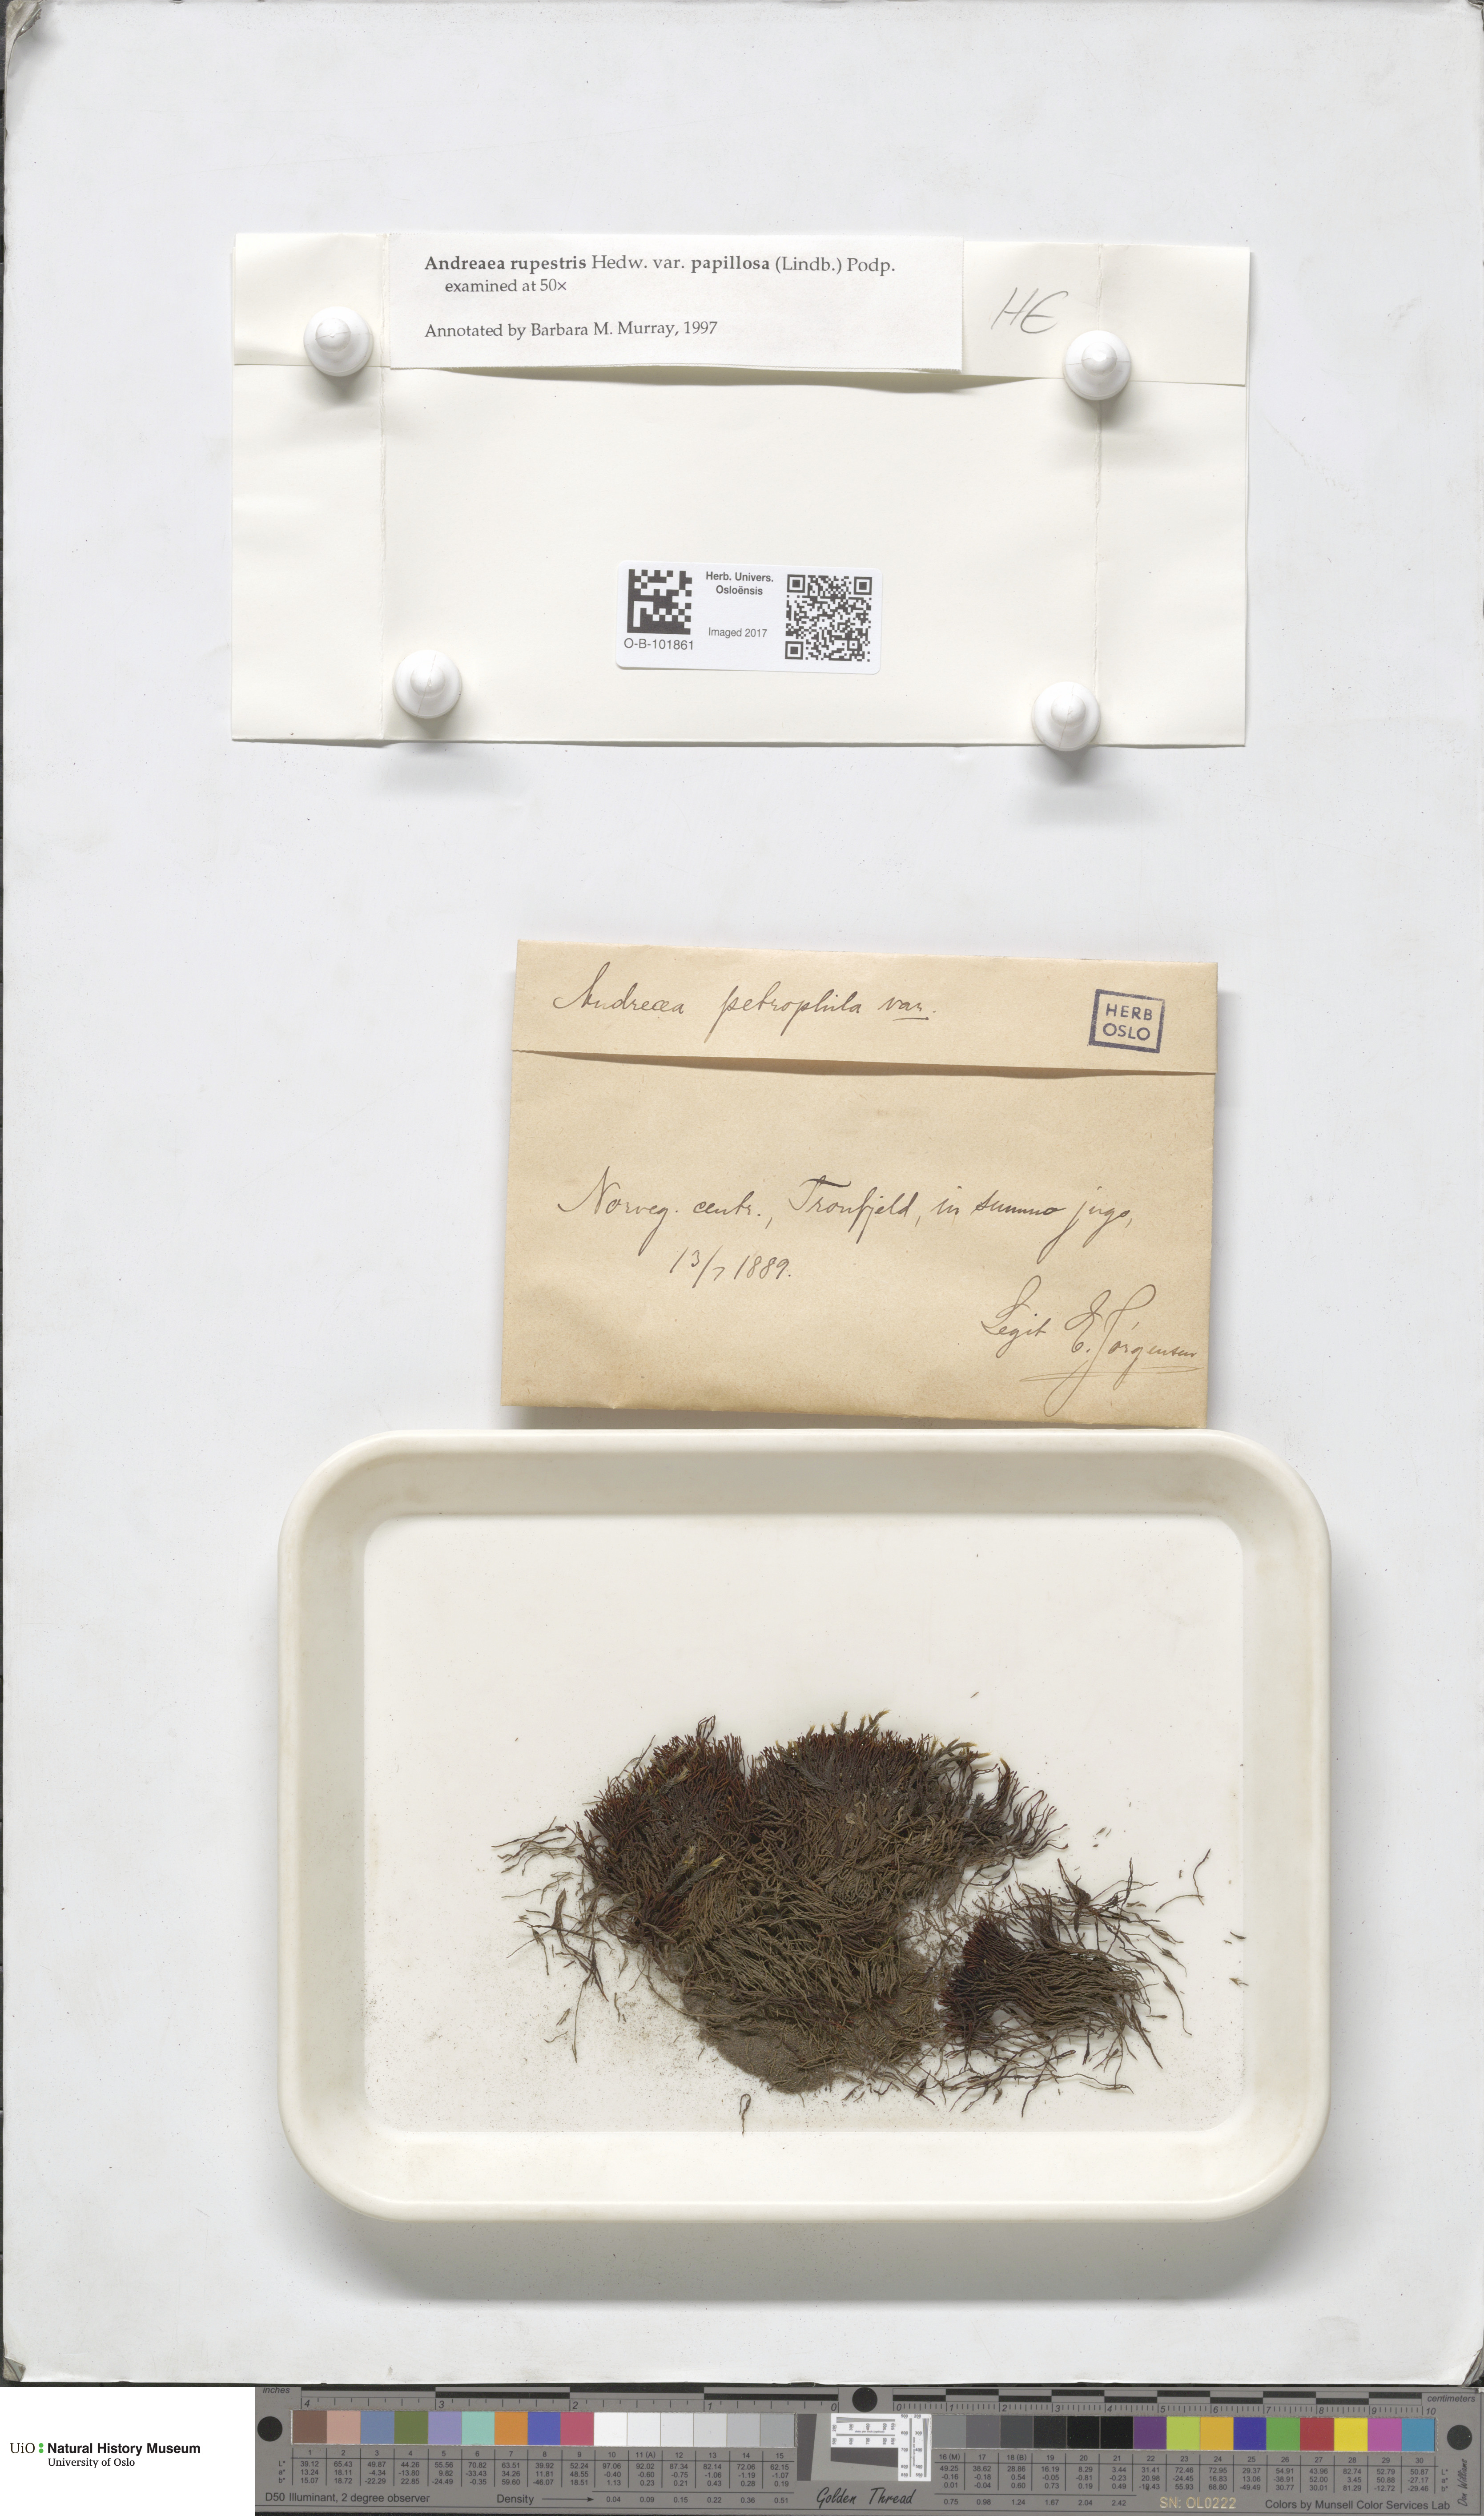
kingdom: Plantae
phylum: Bryophyta
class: Andreaeopsida
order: Andreaeales
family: Andreaeaceae
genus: Andreaea
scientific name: Andreaea rupestris
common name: Black rock moss
